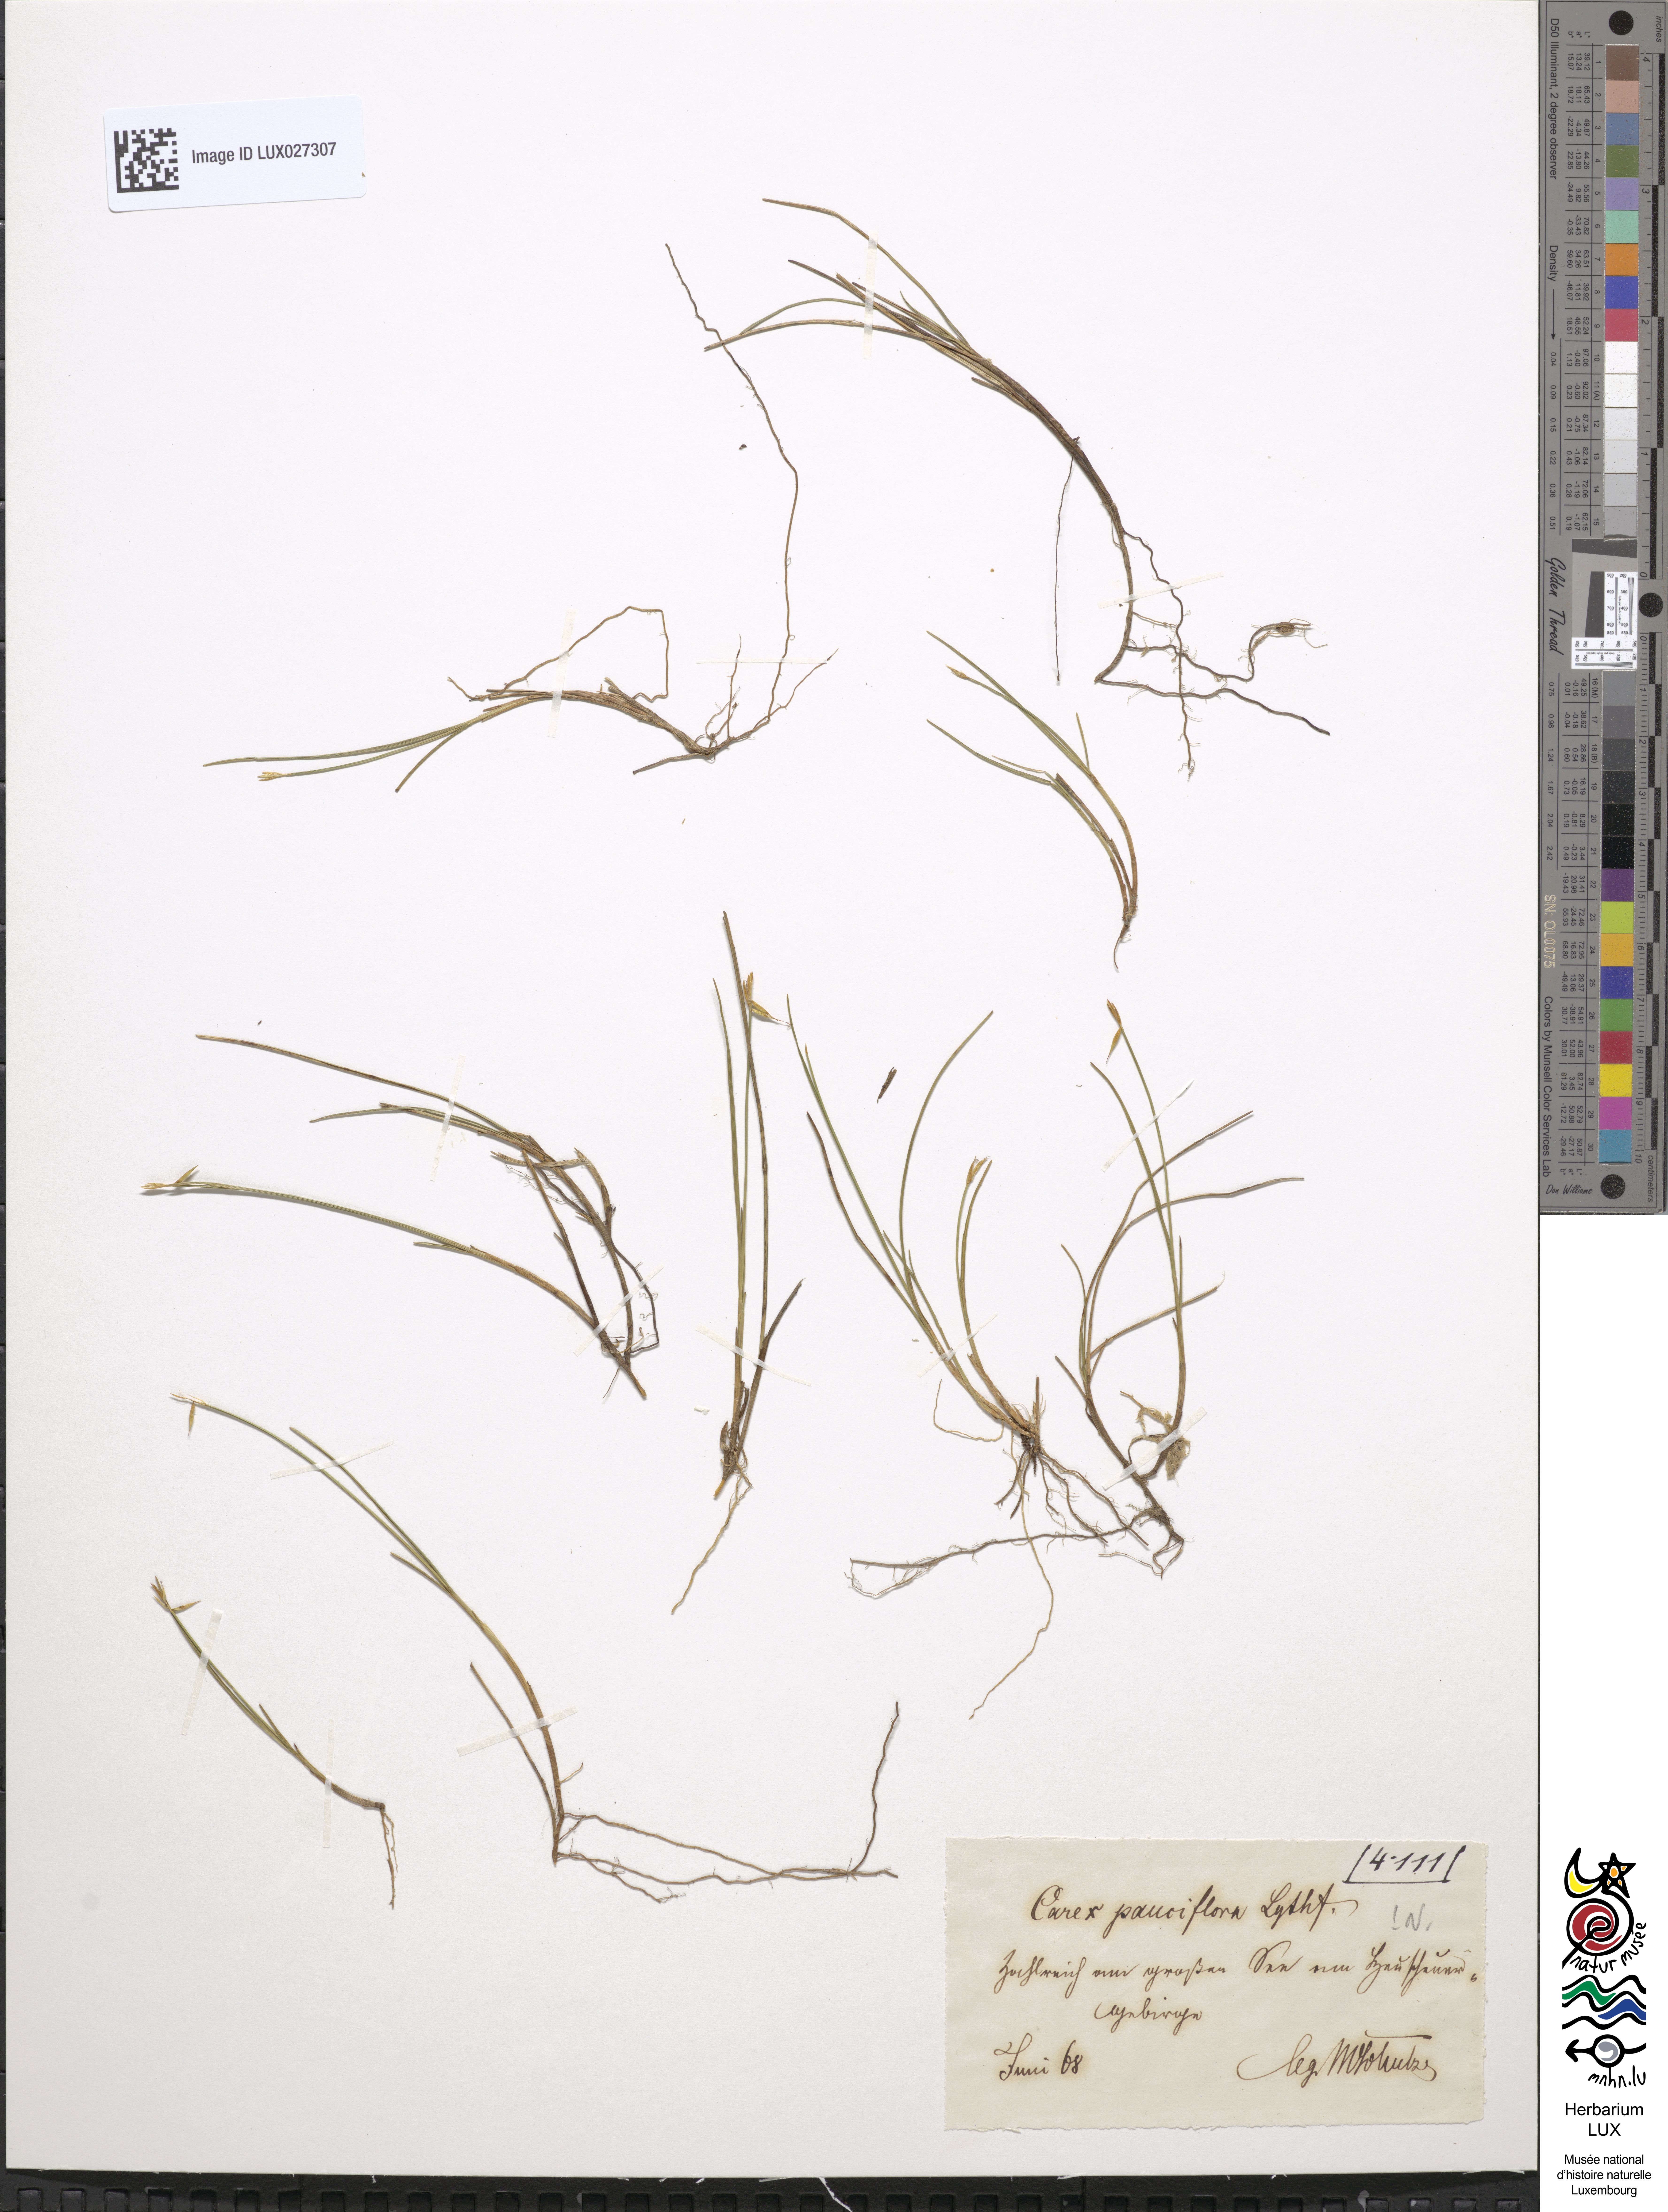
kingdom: Plantae
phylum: Tracheophyta
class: Liliopsida
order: Poales
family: Cyperaceae
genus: Carex
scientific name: Carex pauciflora
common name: Few-flowered sedge
